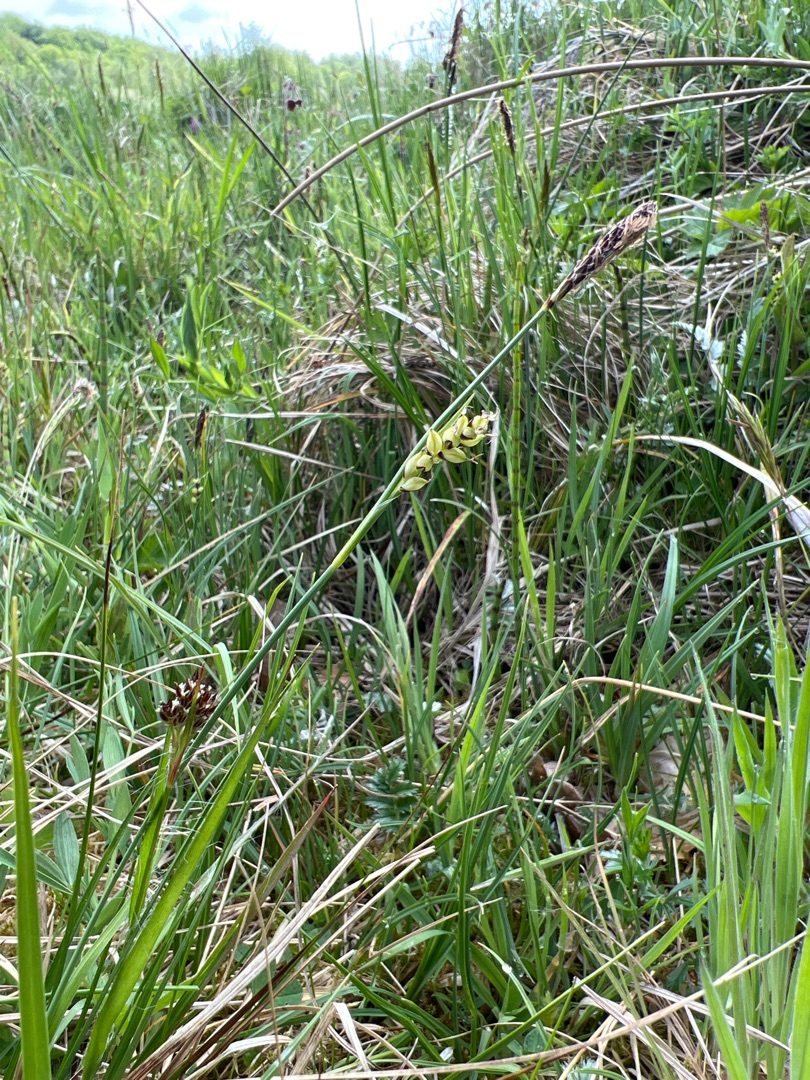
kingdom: Plantae
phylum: Tracheophyta
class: Liliopsida
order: Poales
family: Cyperaceae
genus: Carex
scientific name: Carex panicea
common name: Hirse-star
